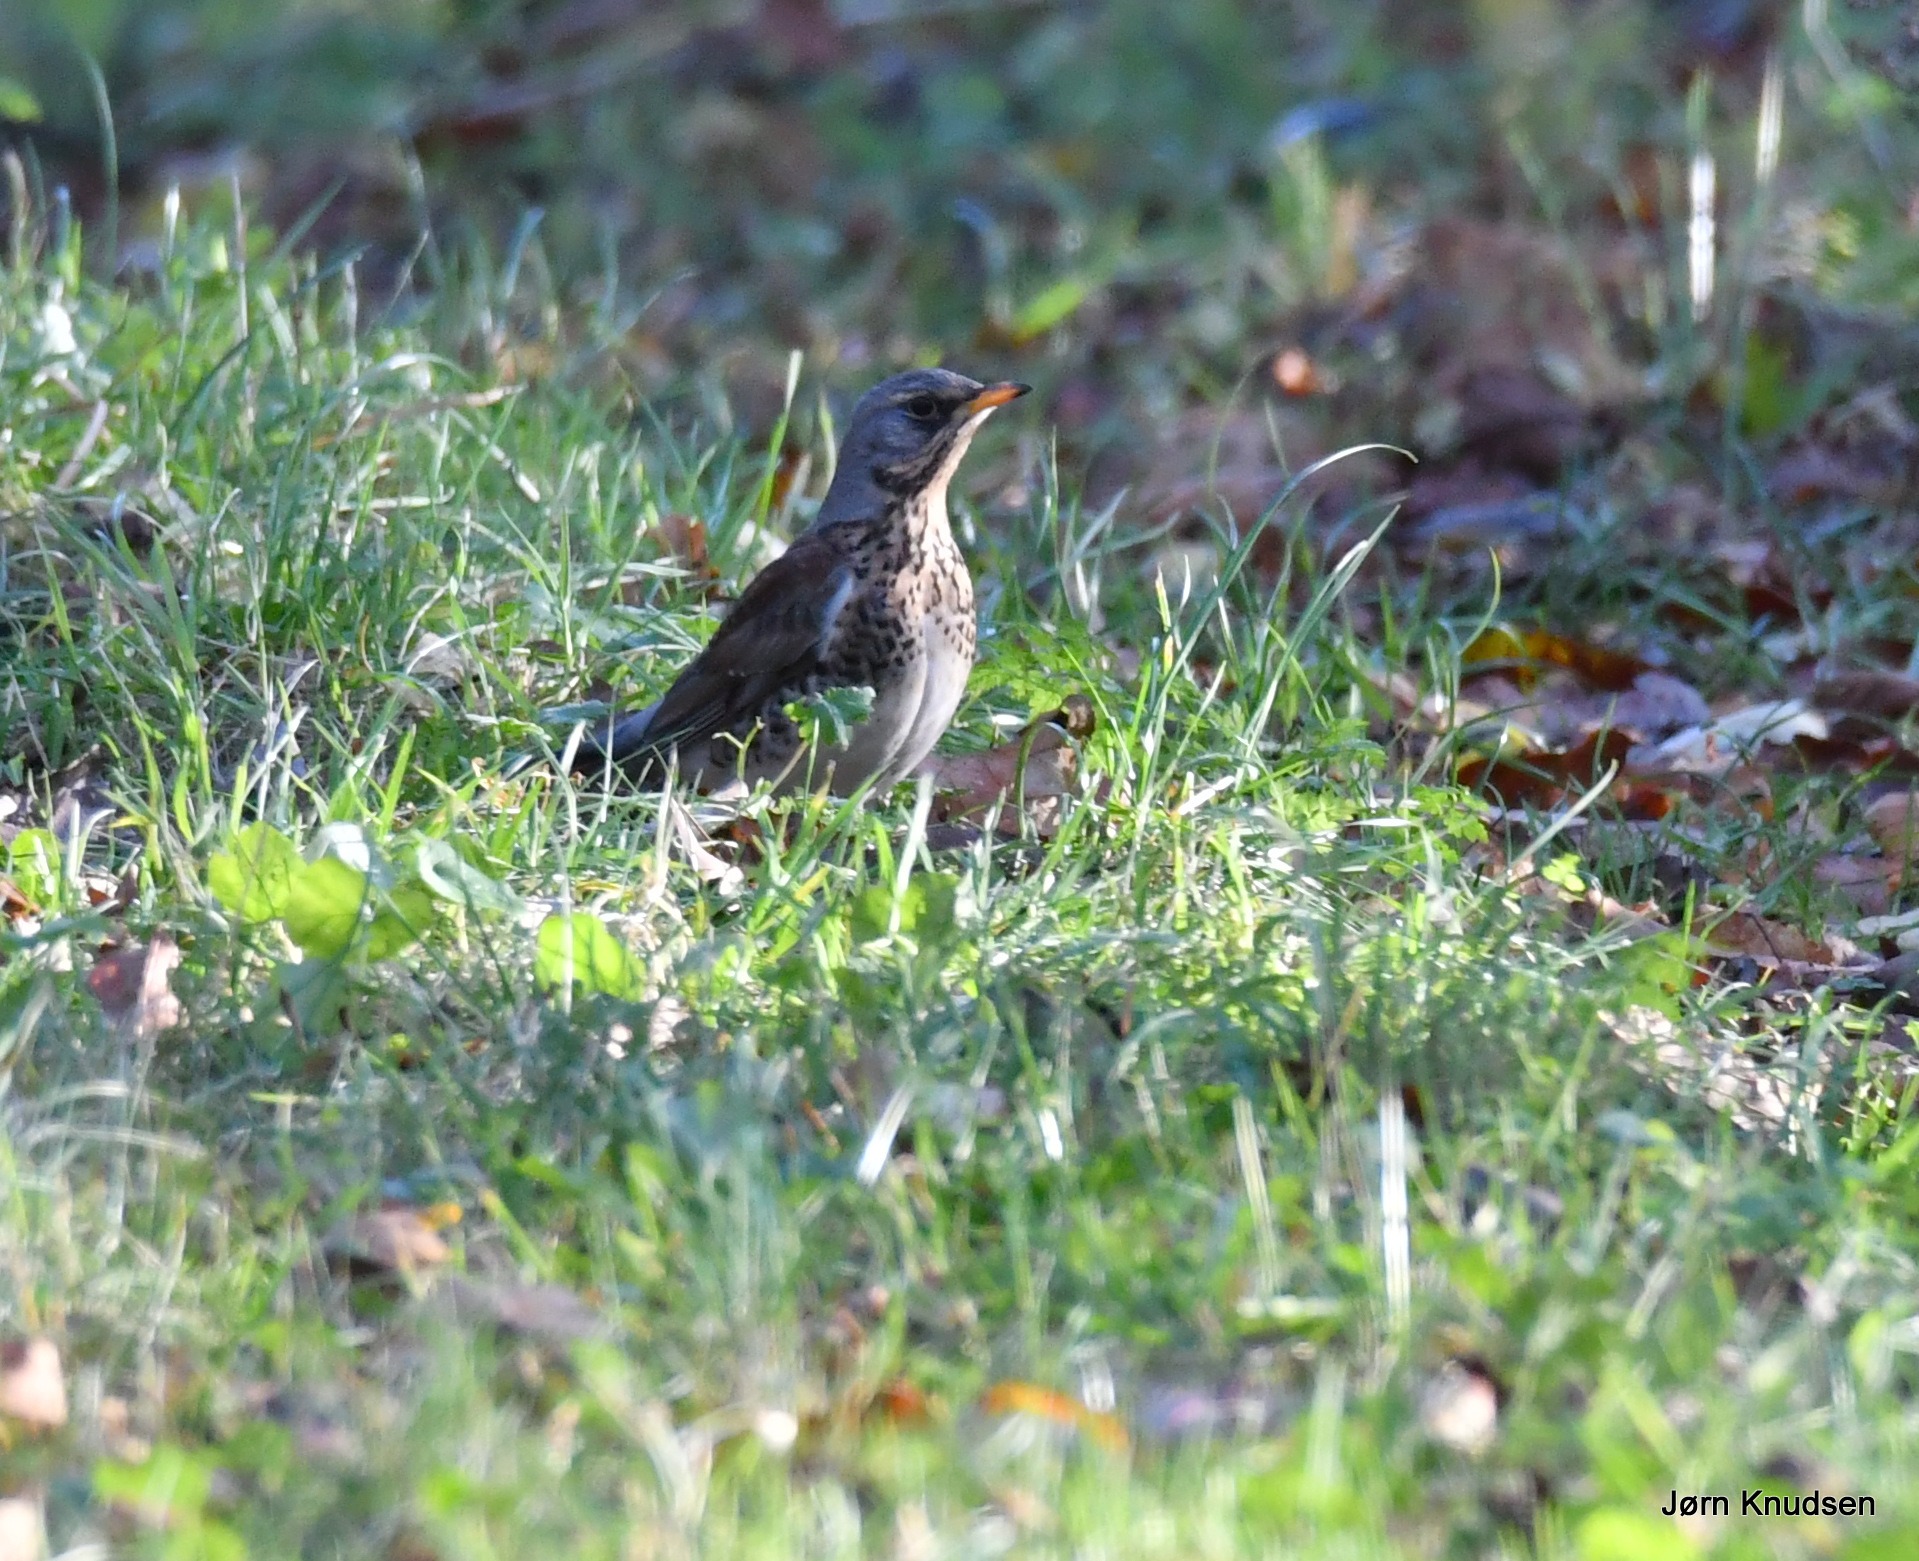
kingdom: Animalia
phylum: Chordata
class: Aves
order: Passeriformes
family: Turdidae
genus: Turdus
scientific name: Turdus pilaris
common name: Sjagger
